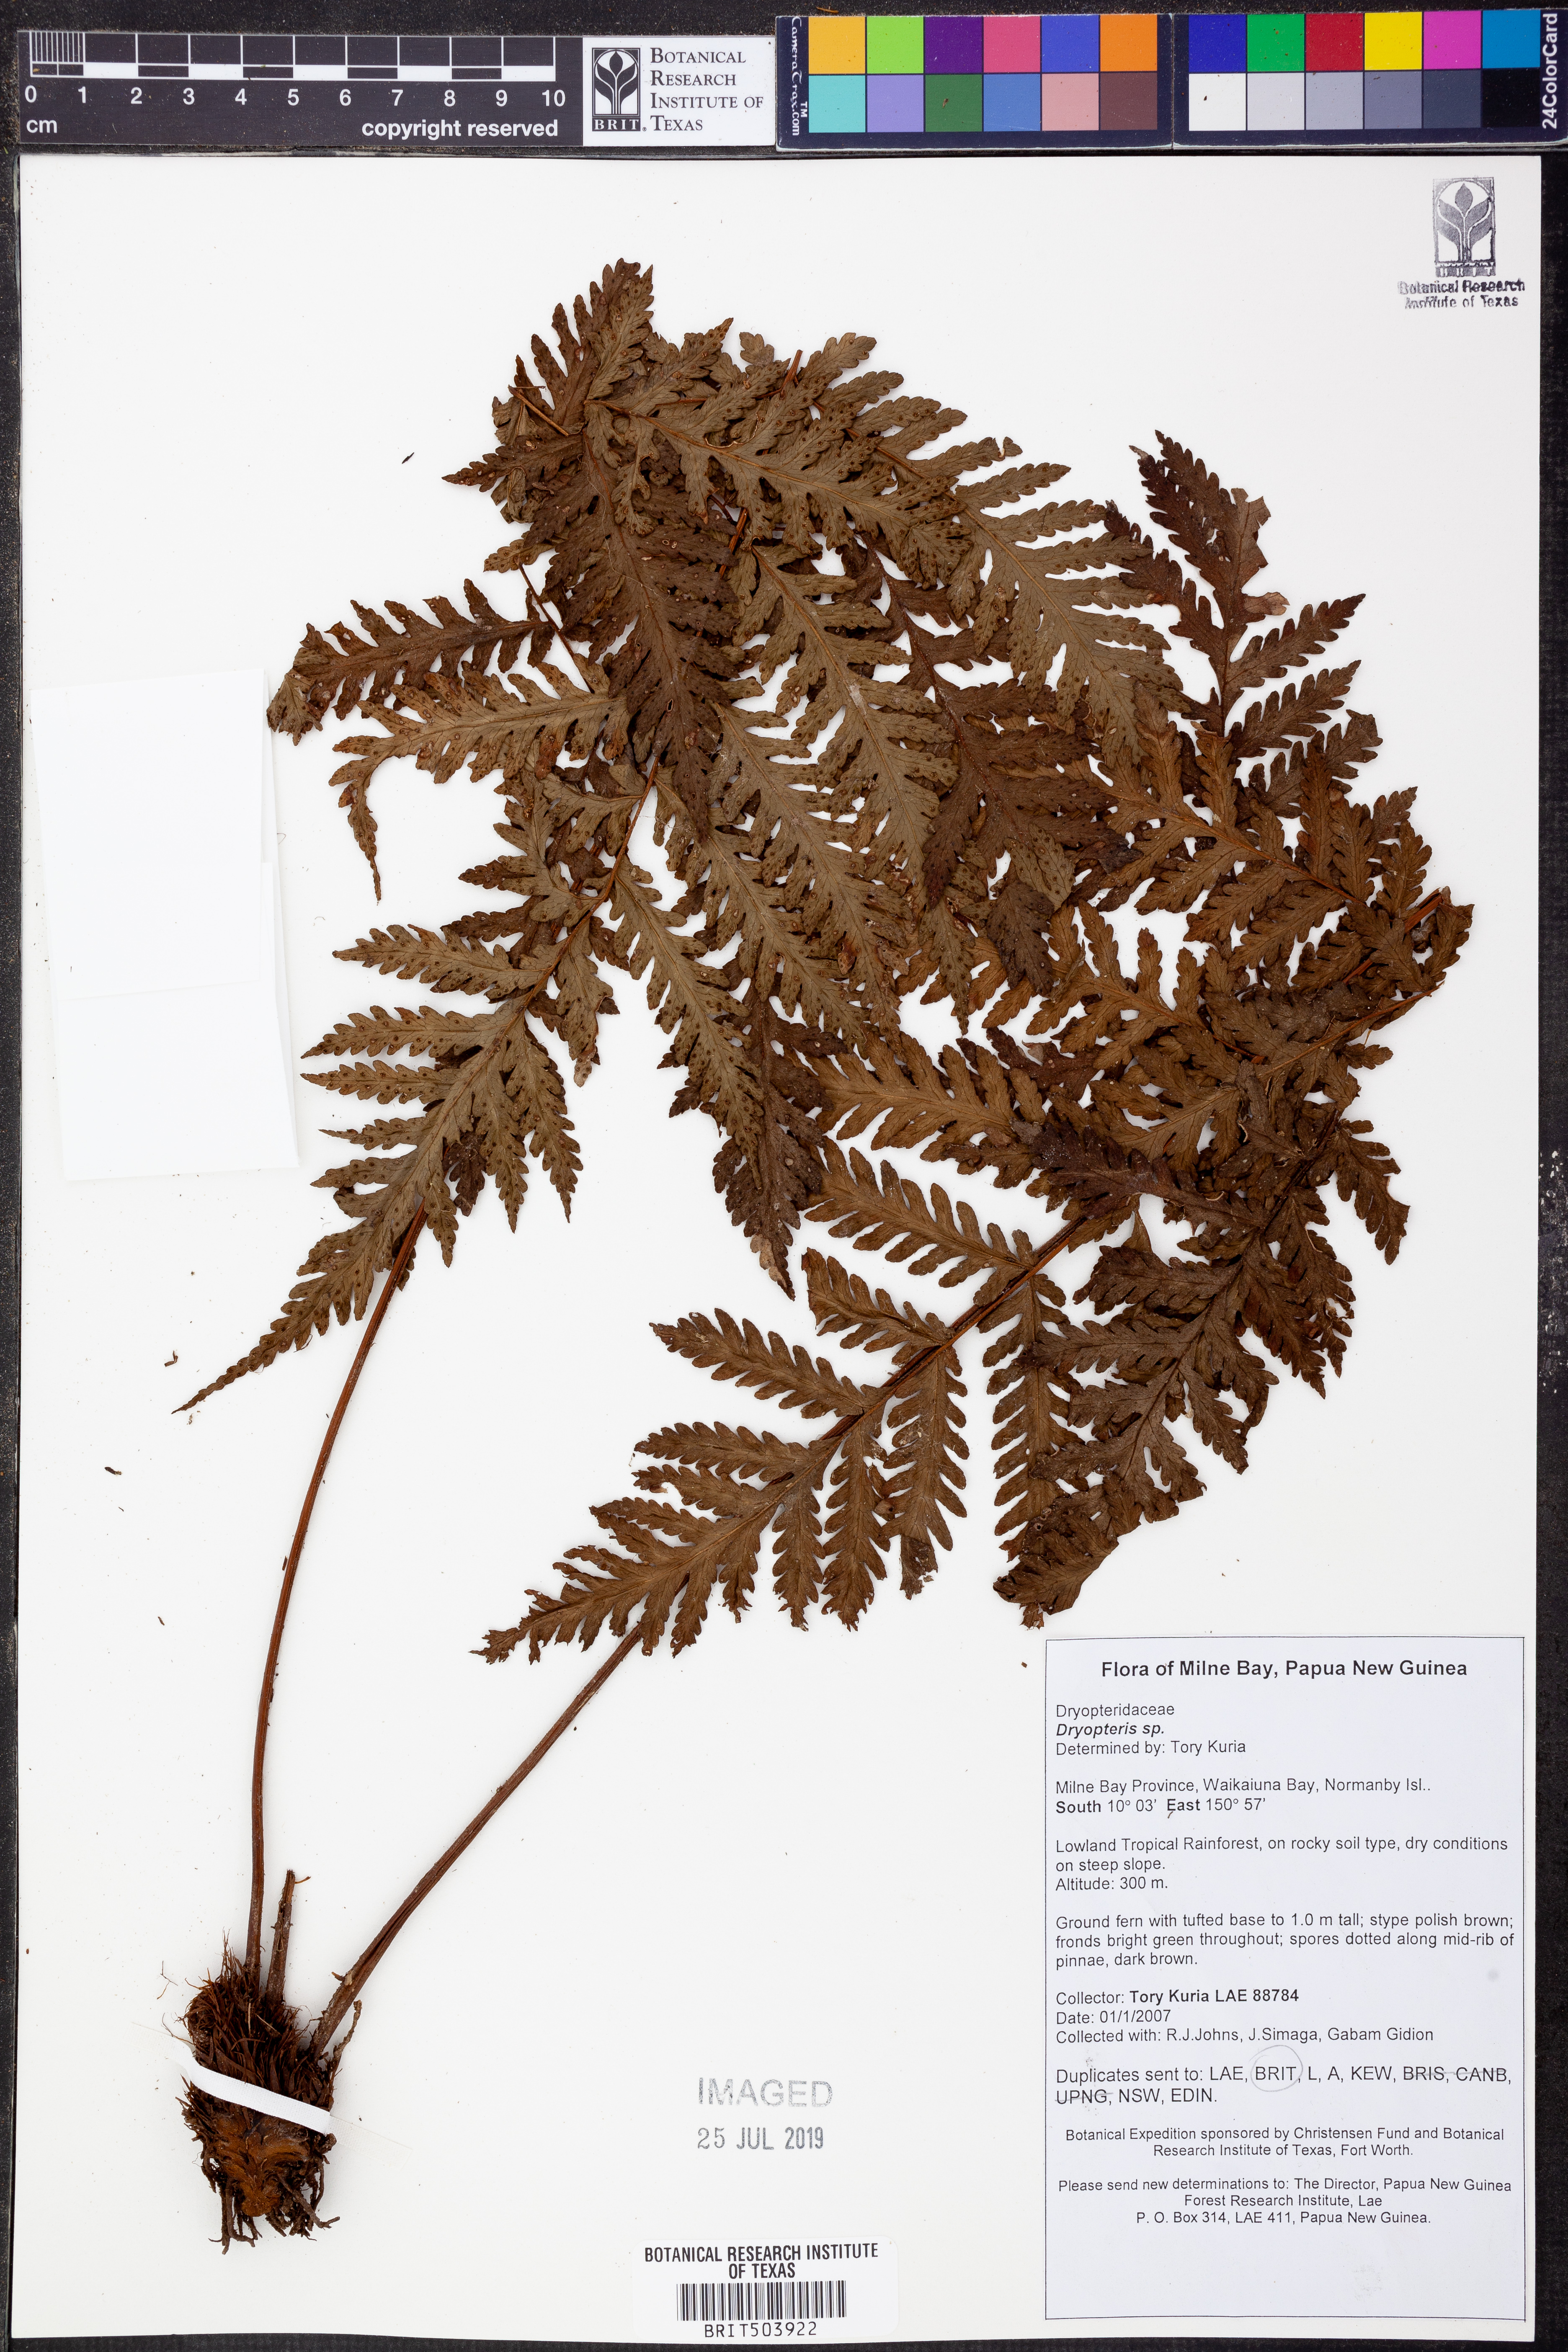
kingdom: Plantae
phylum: Tracheophyta
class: Polypodiopsida
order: Polypodiales
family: Dryopteridaceae
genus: Dryopteris
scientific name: Dryopteris
